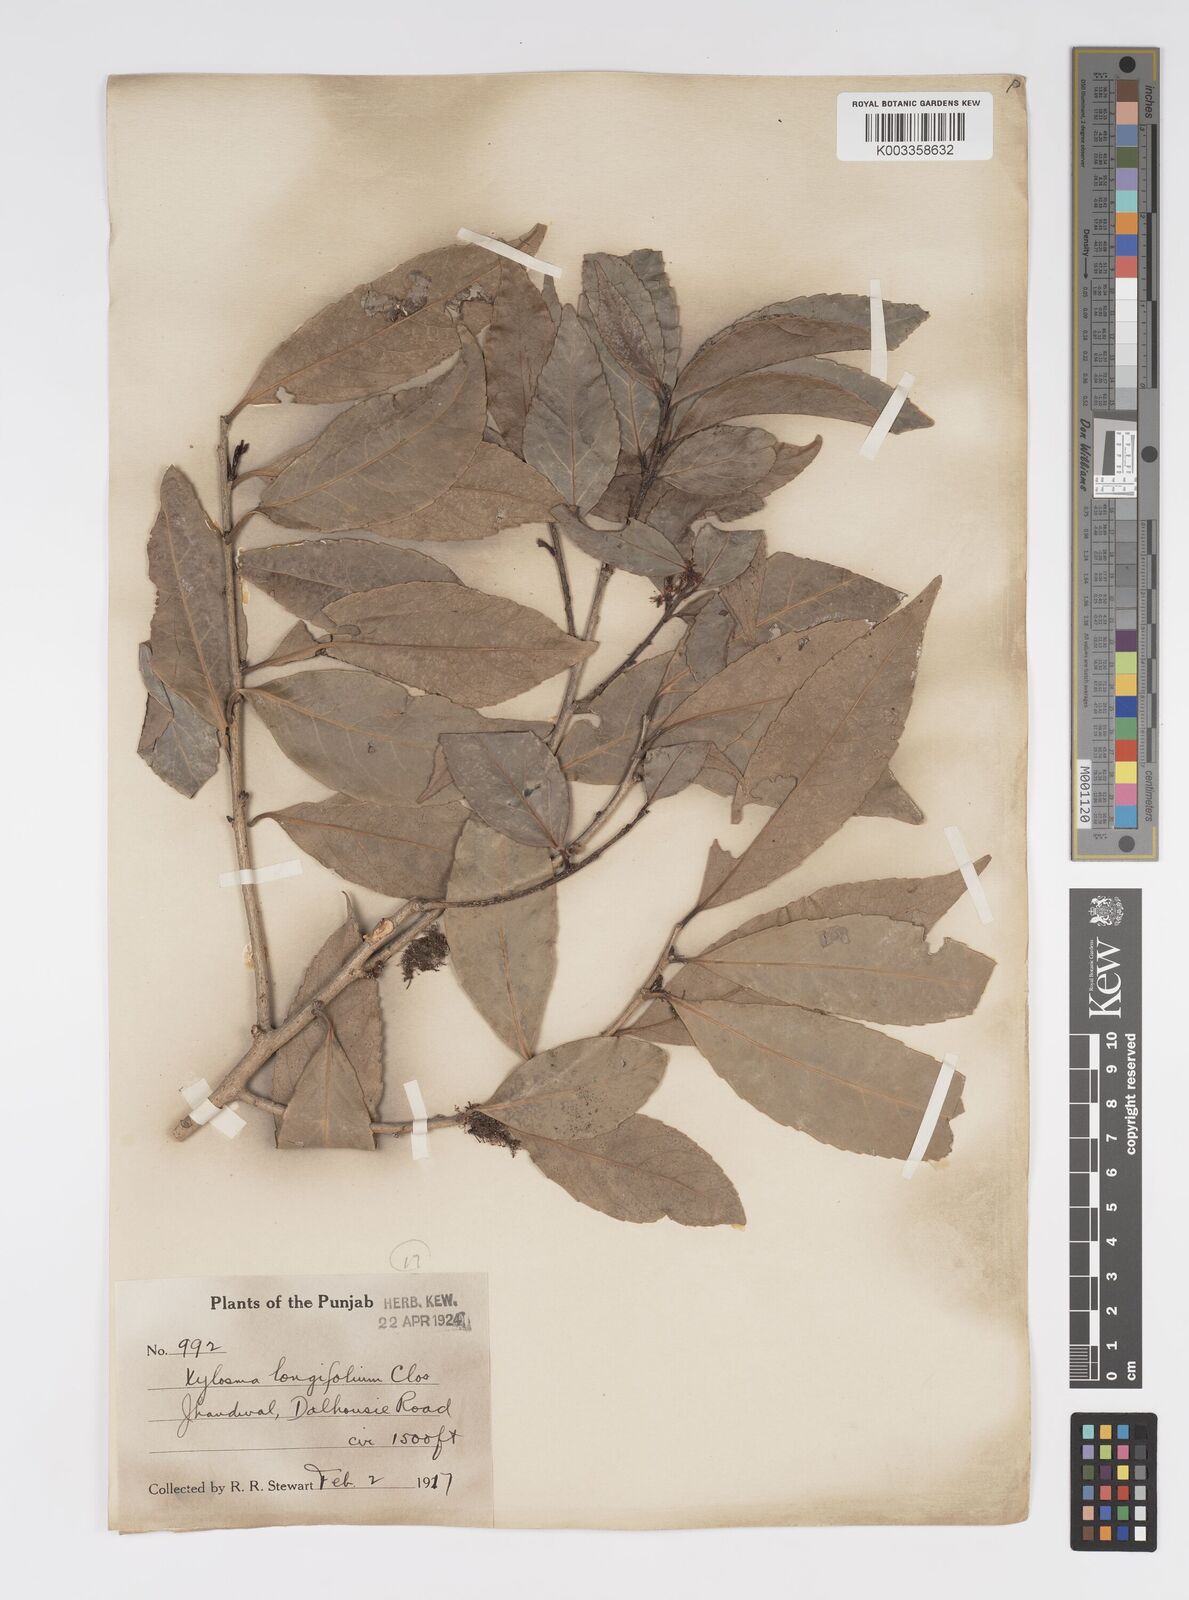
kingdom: Plantae
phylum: Tracheophyta
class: Magnoliopsida
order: Malpighiales
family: Salicaceae
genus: Xylosma
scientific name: Xylosma longifolia
